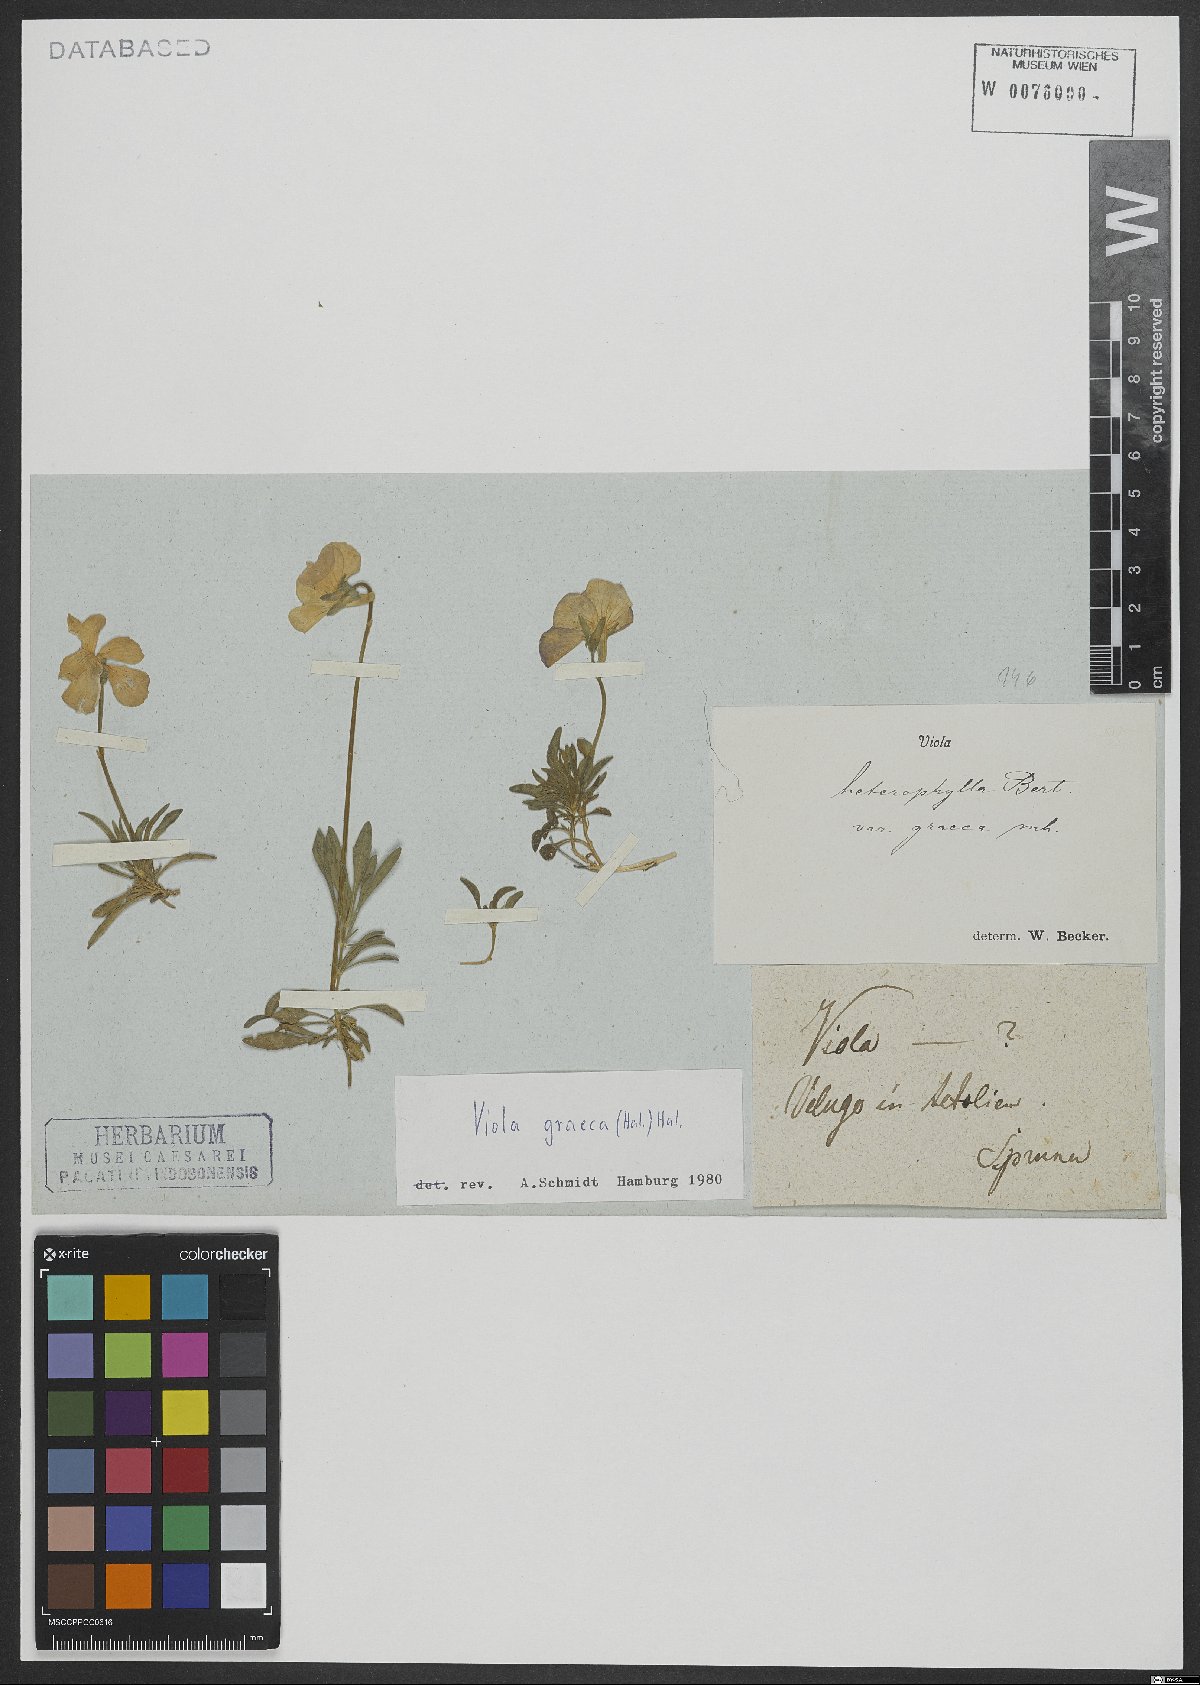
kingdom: Plantae
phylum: Tracheophyta
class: Magnoliopsida
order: Malpighiales
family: Violaceae
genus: Viola
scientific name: Viola graeca
